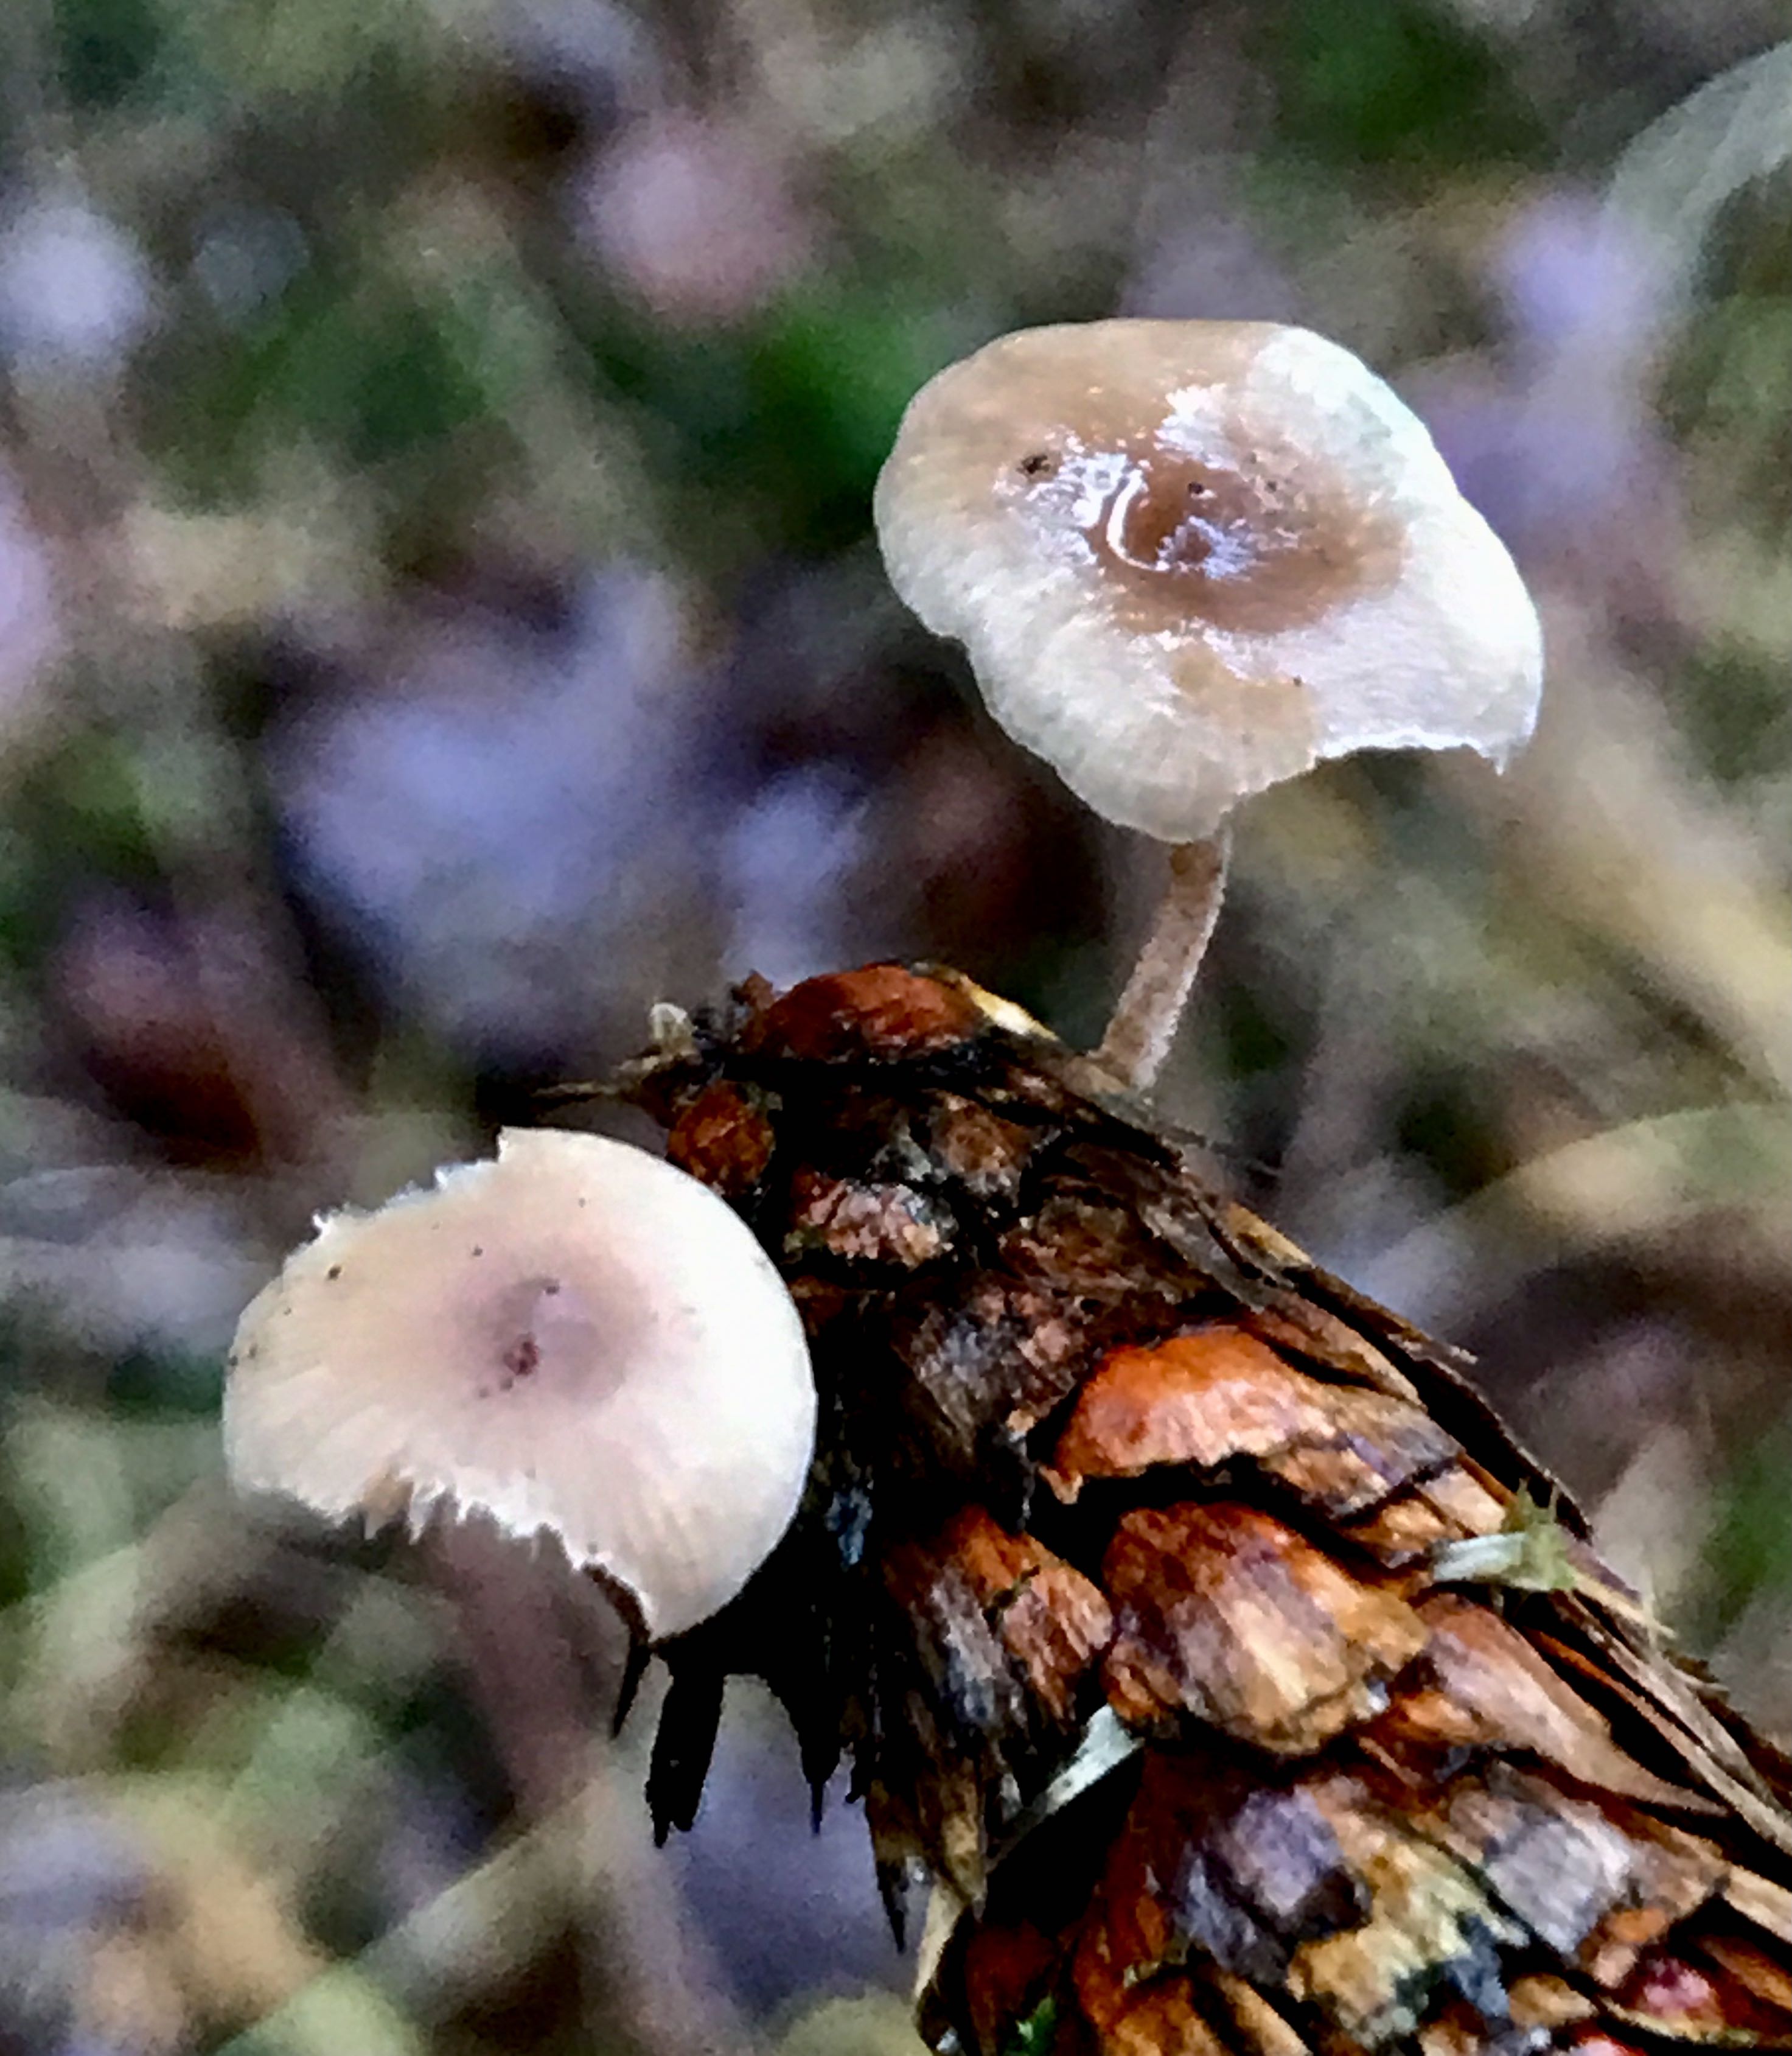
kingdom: Fungi
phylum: Basidiomycota
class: Agaricomycetes
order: Agaricales
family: Marasmiaceae
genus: Baeospora
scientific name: Baeospora myosura
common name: koglebruskhat
